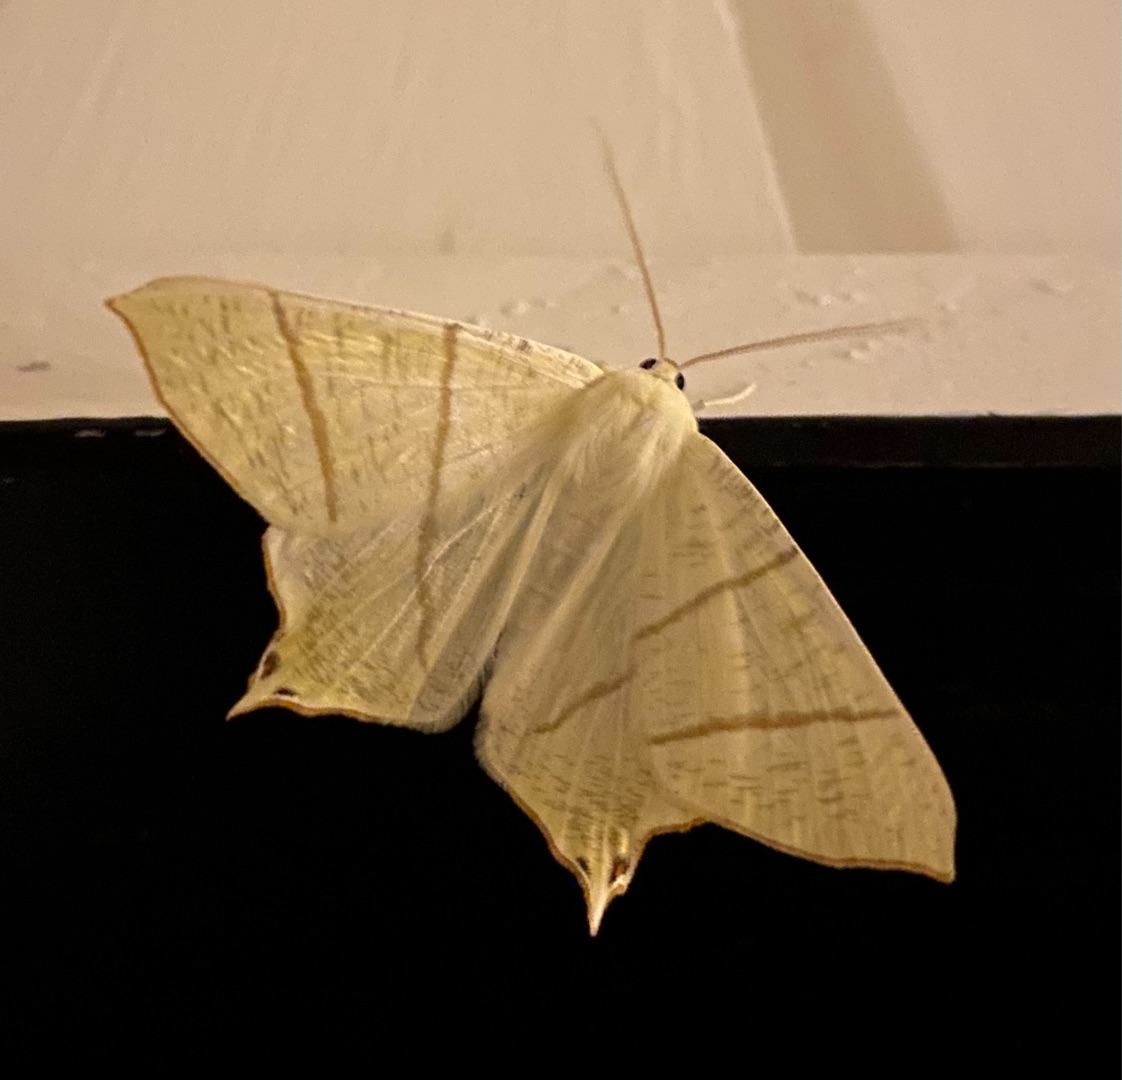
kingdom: Animalia
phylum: Arthropoda
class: Insecta
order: Lepidoptera
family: Geometridae
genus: Ourapteryx
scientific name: Ourapteryx sambucaria
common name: Natsvalehale
